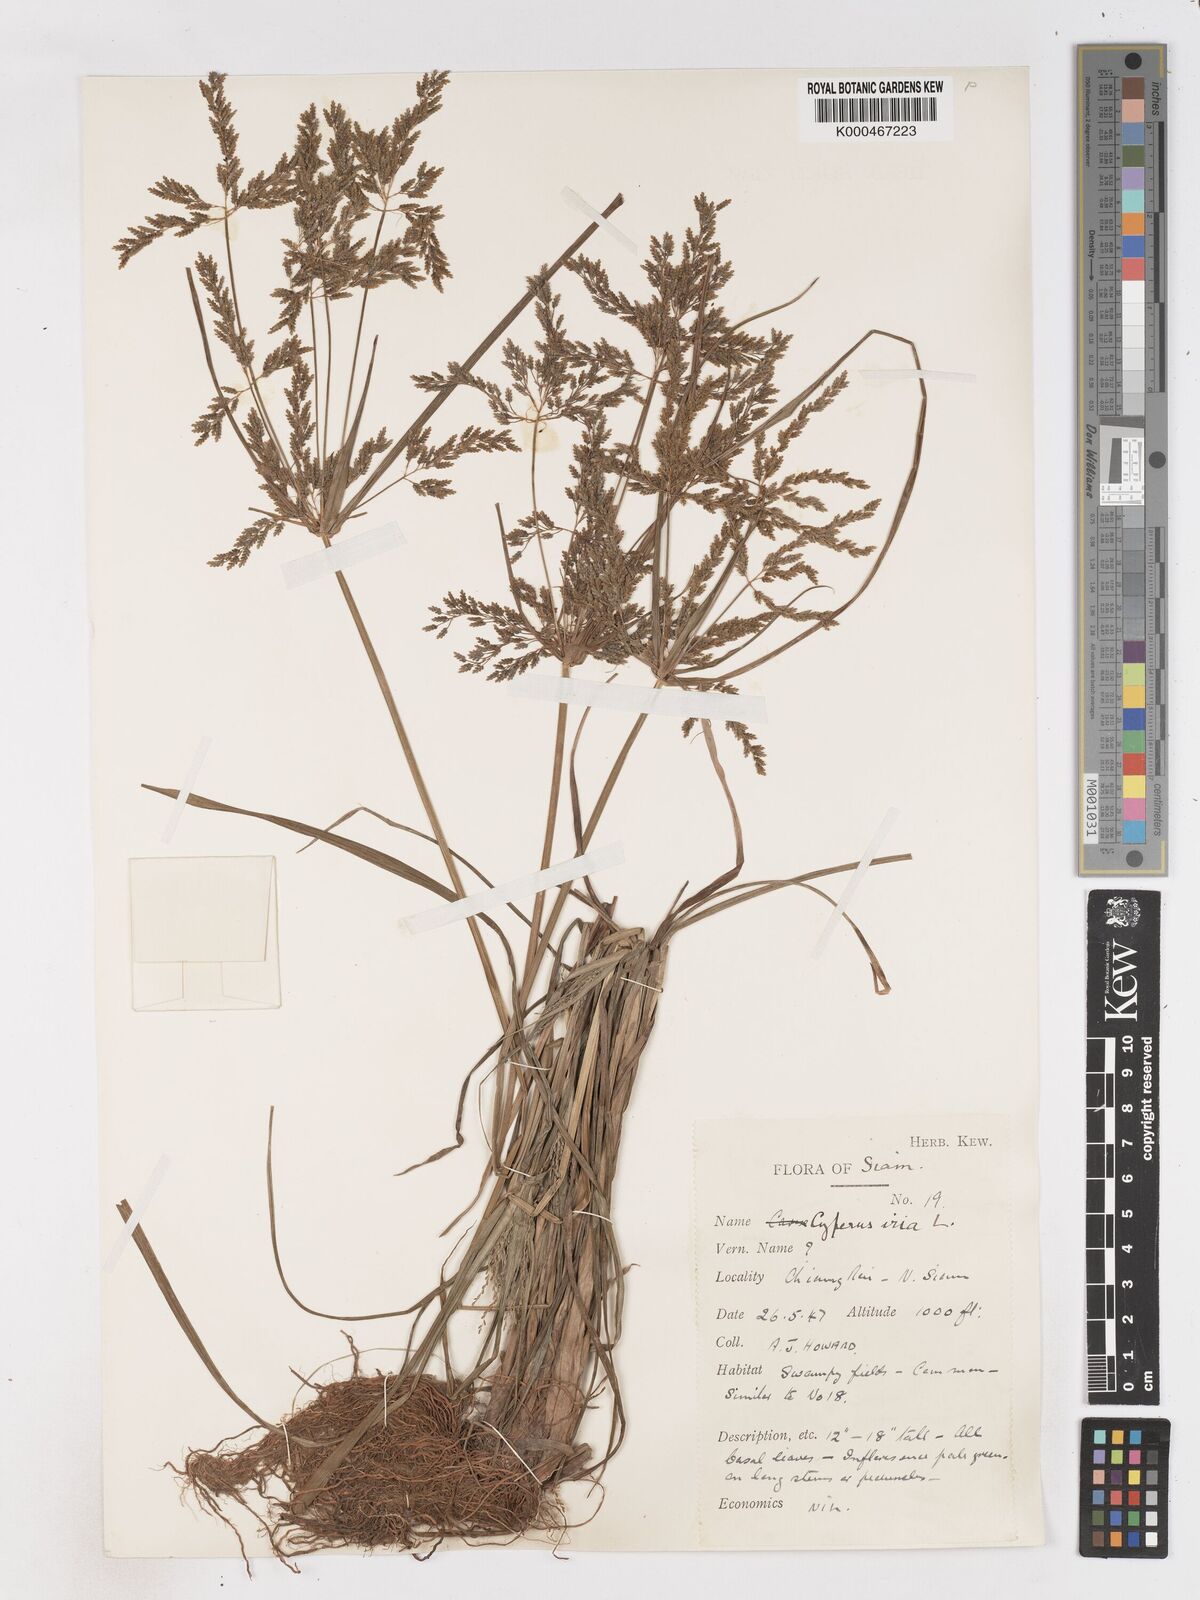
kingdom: Plantae
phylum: Tracheophyta
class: Liliopsida
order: Poales
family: Cyperaceae
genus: Cyperus
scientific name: Cyperus iria
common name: Ricefield flatsedge
